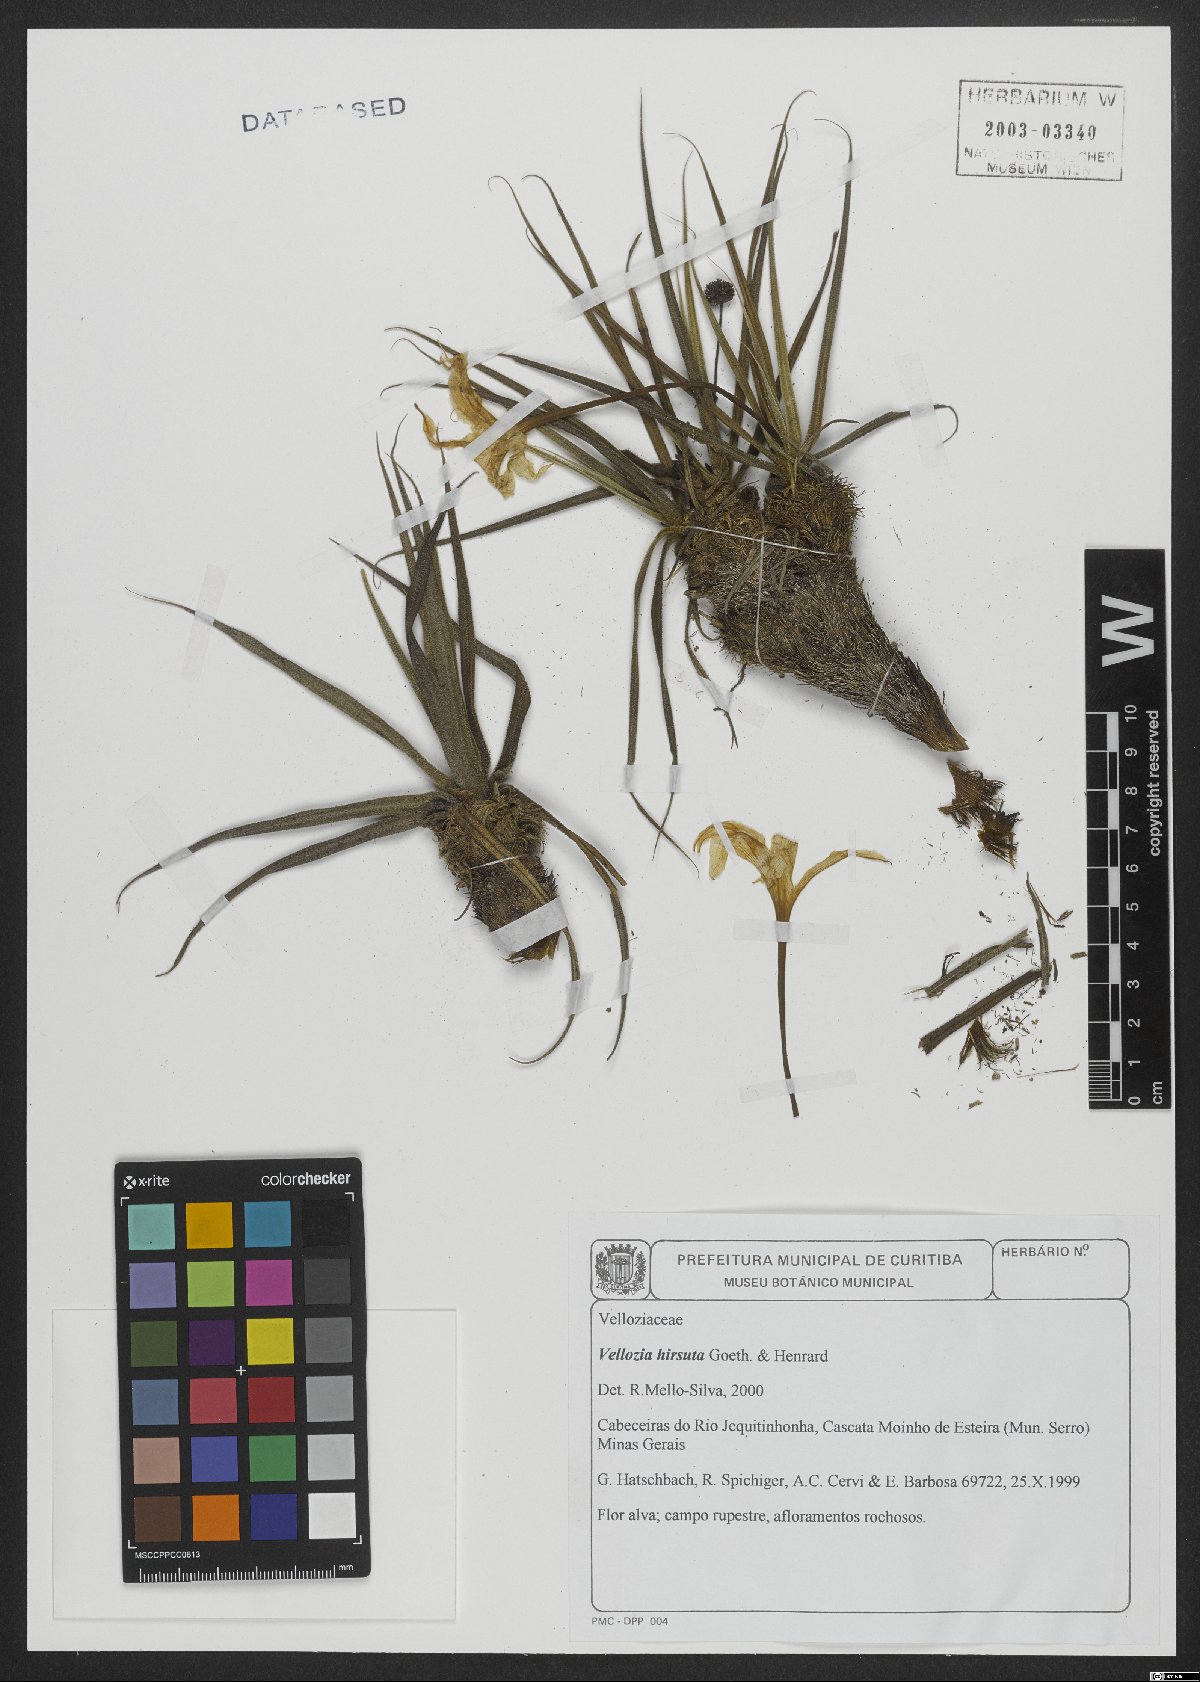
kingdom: Plantae
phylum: Tracheophyta
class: Liliopsida
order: Pandanales
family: Velloziaceae
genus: Vellozia
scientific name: Vellozia hirsuta
